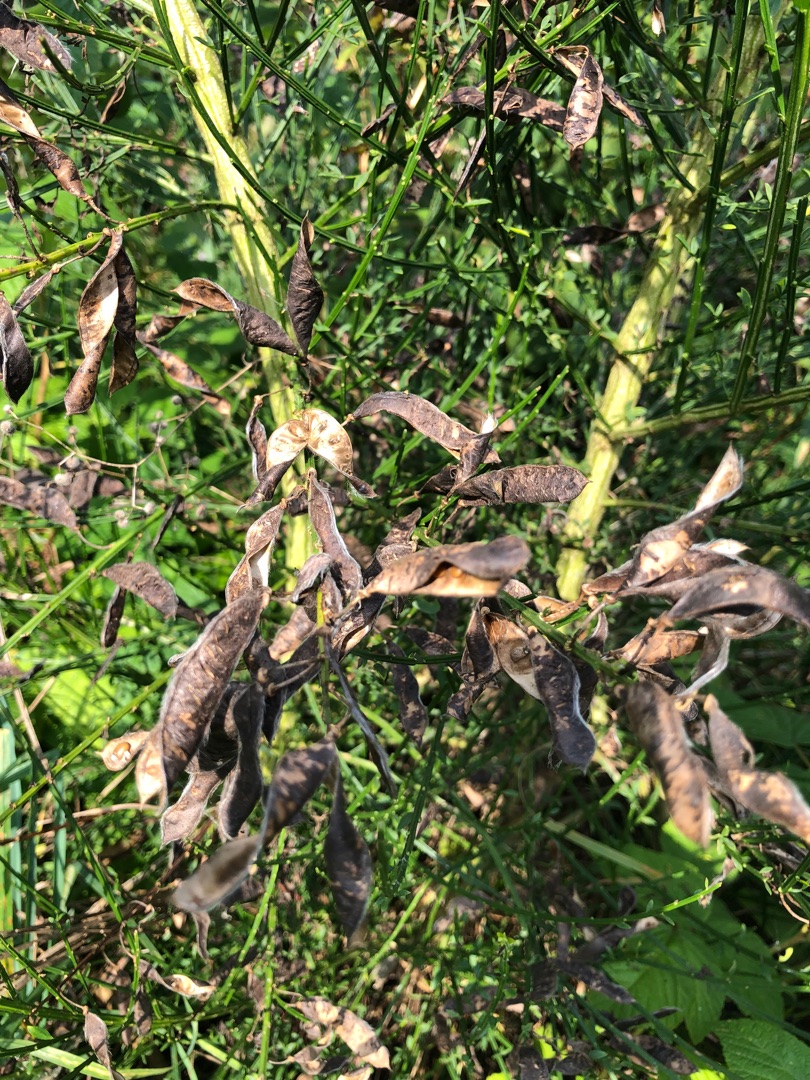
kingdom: Plantae
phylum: Tracheophyta
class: Magnoliopsida
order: Fabales
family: Fabaceae
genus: Cytisus
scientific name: Cytisus scoparius
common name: Almindelig gyvel
